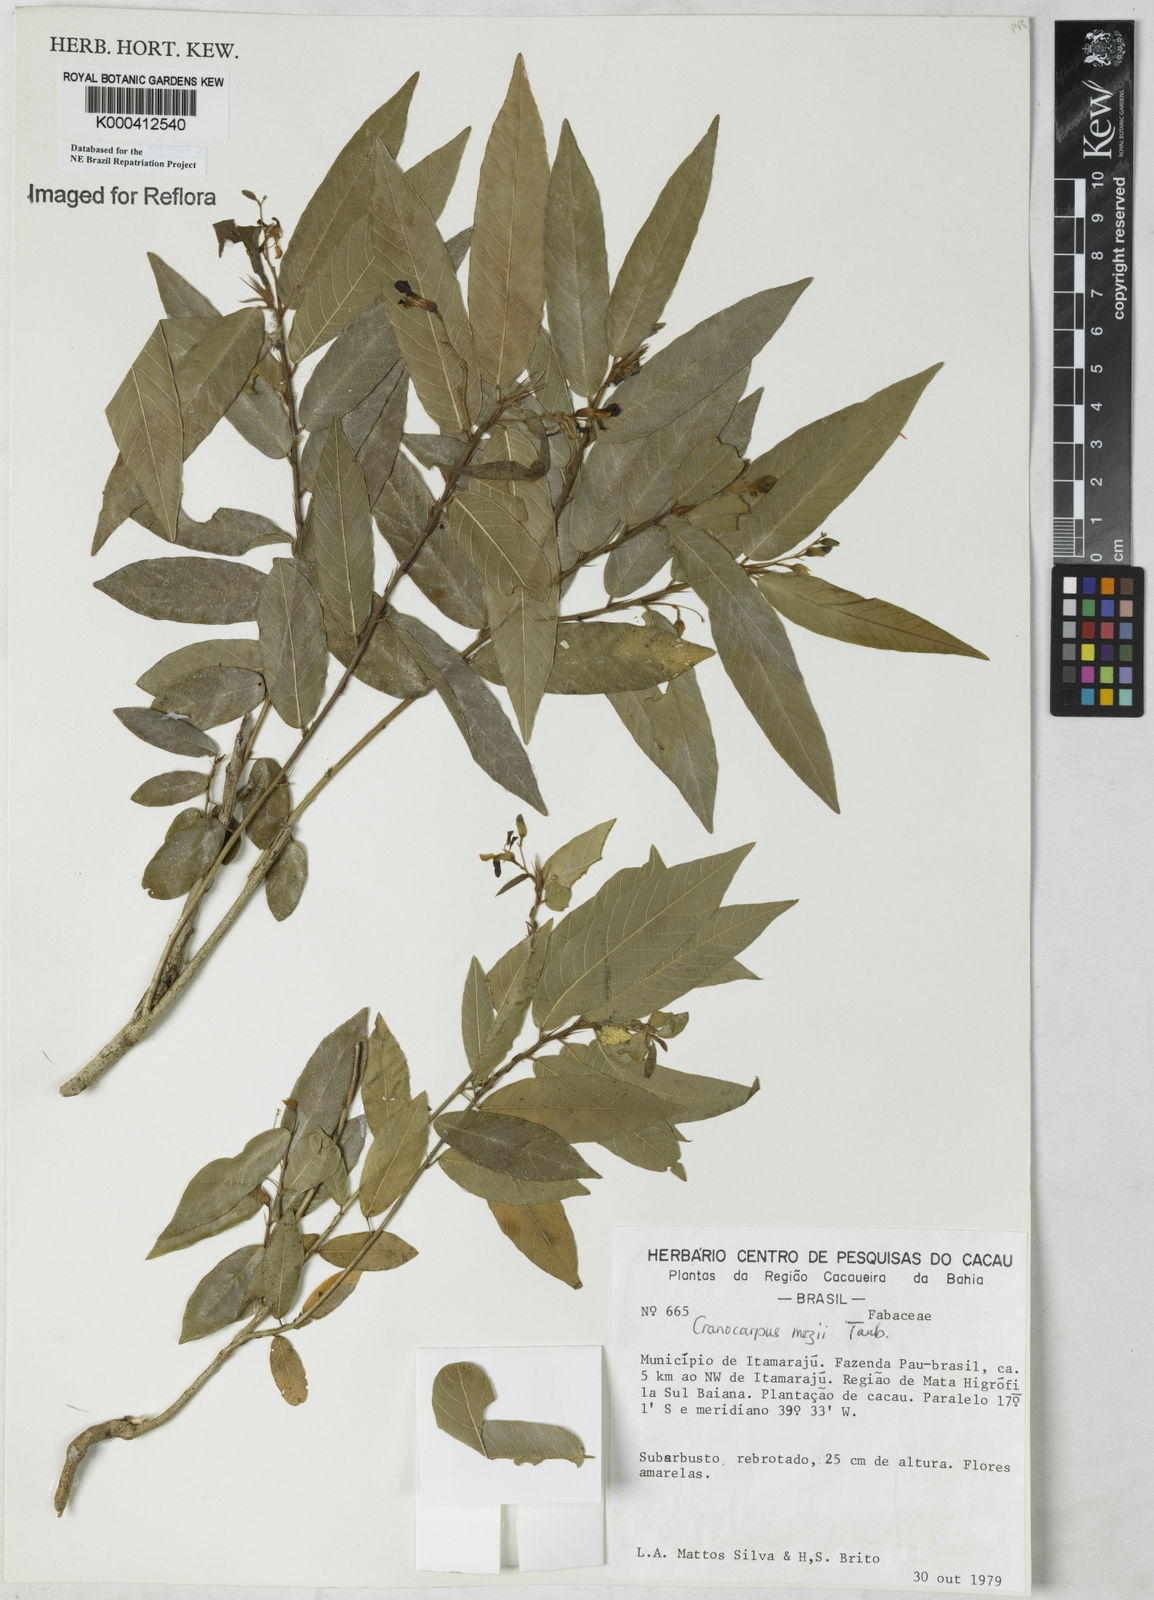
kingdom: Plantae
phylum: Tracheophyta
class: Magnoliopsida
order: Fabales
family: Fabaceae
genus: Cranocarpus
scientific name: Cranocarpus mezii
